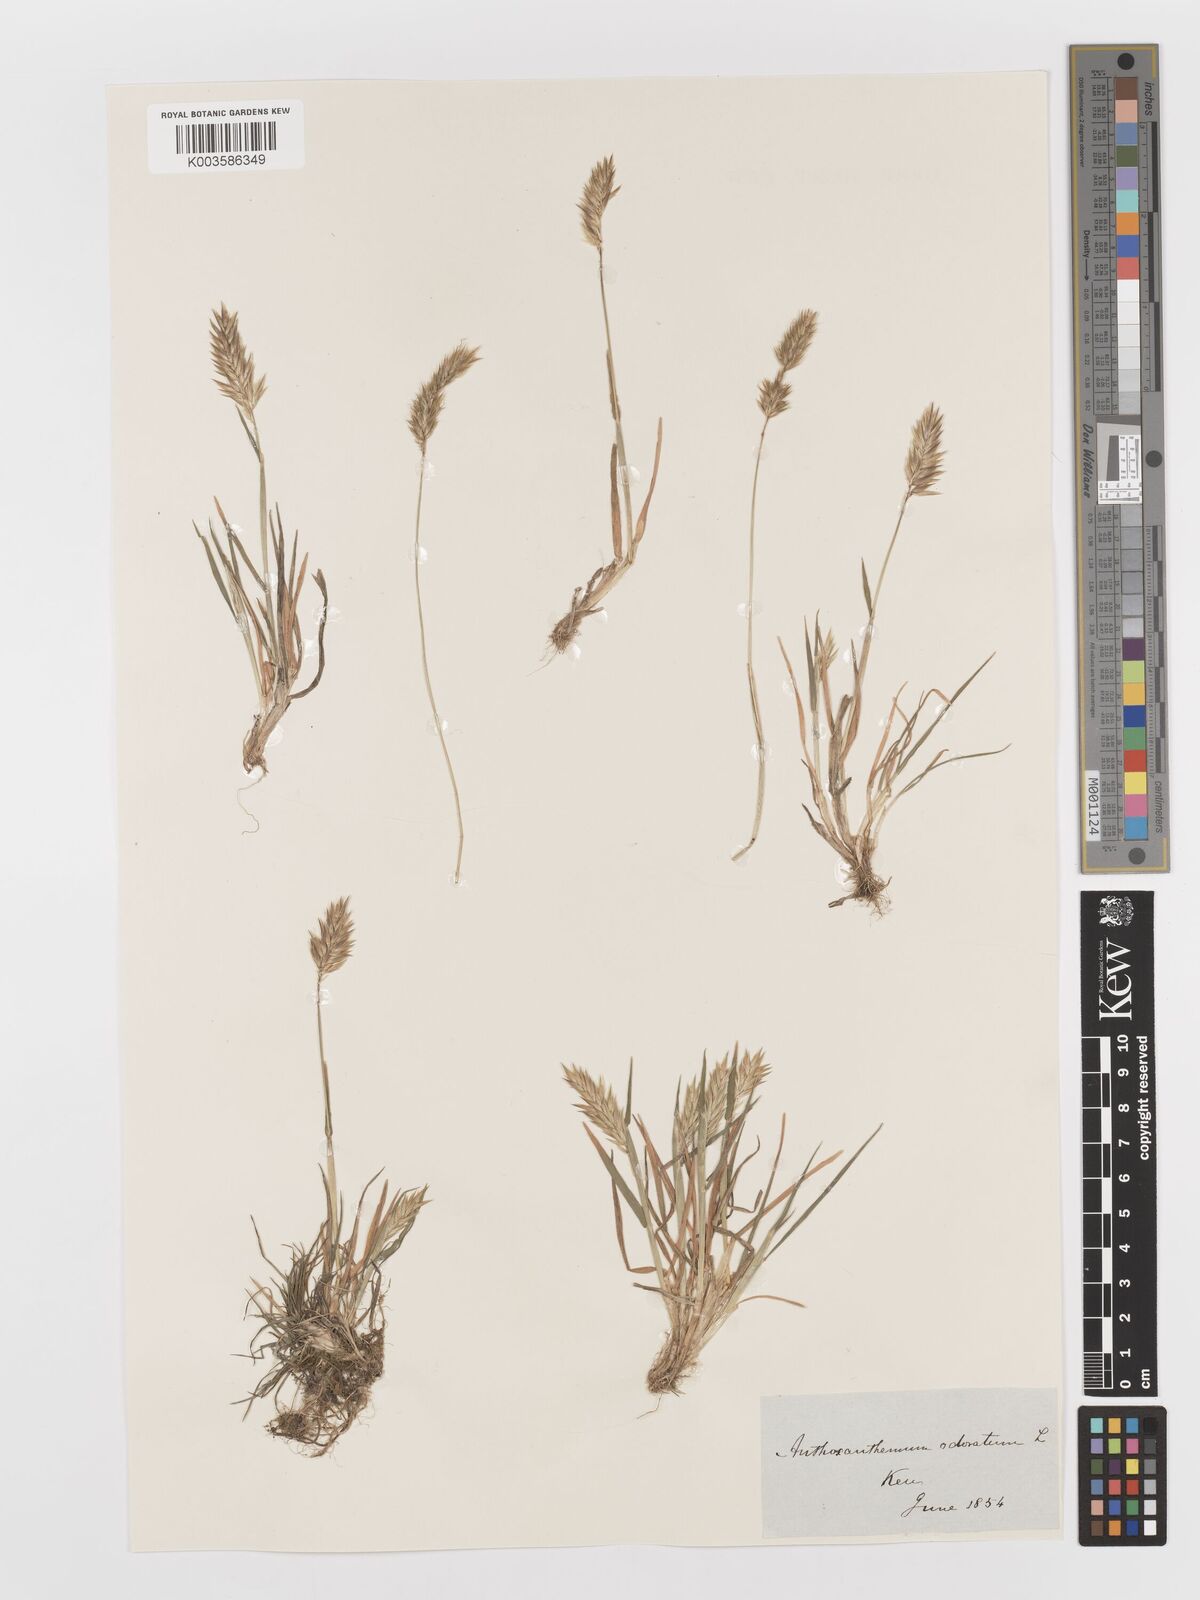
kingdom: Plantae
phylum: Tracheophyta
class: Liliopsida
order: Poales
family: Poaceae
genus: Anthoxanthum
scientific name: Anthoxanthum odoratum
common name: Sweet vernalgrass
